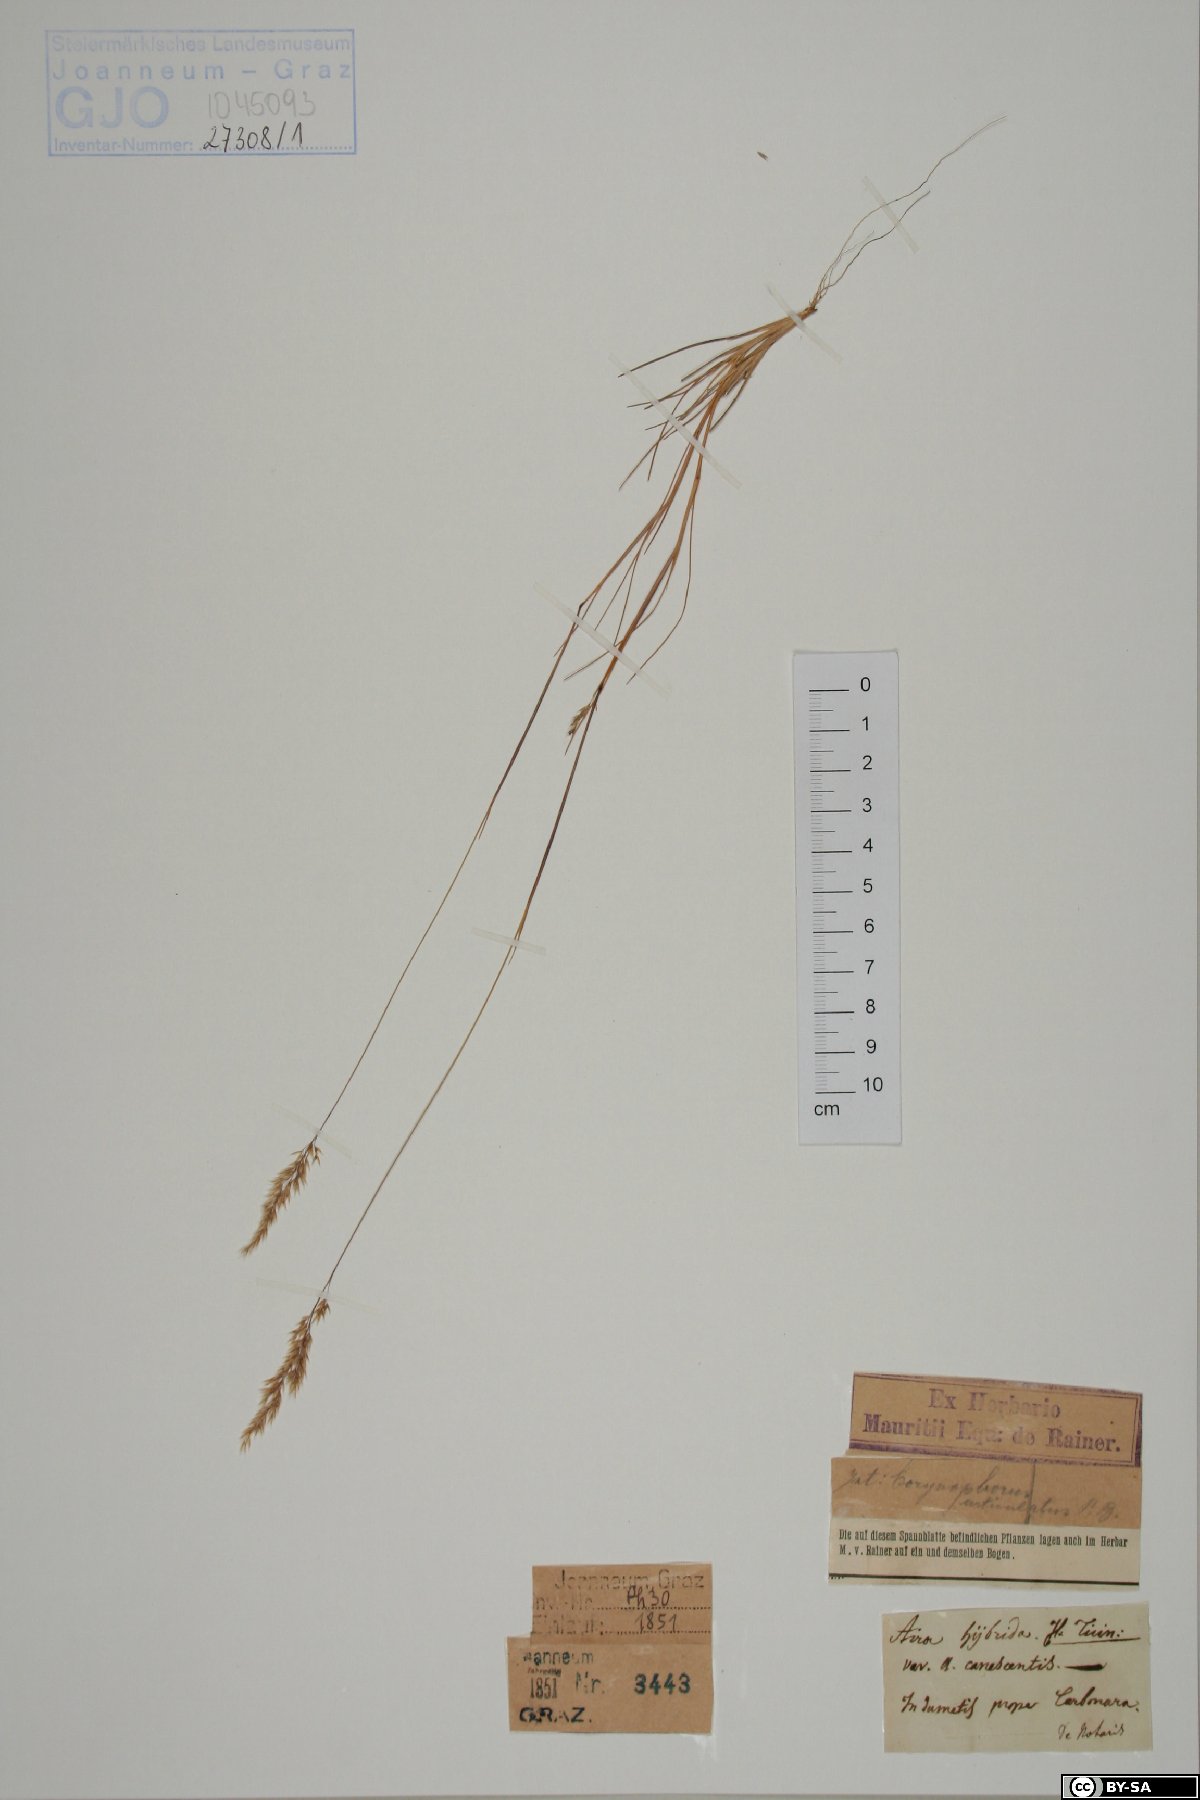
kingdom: Plantae
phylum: Tracheophyta
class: Liliopsida
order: Poales
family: Poaceae
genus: Aira
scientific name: Aira hybrida
